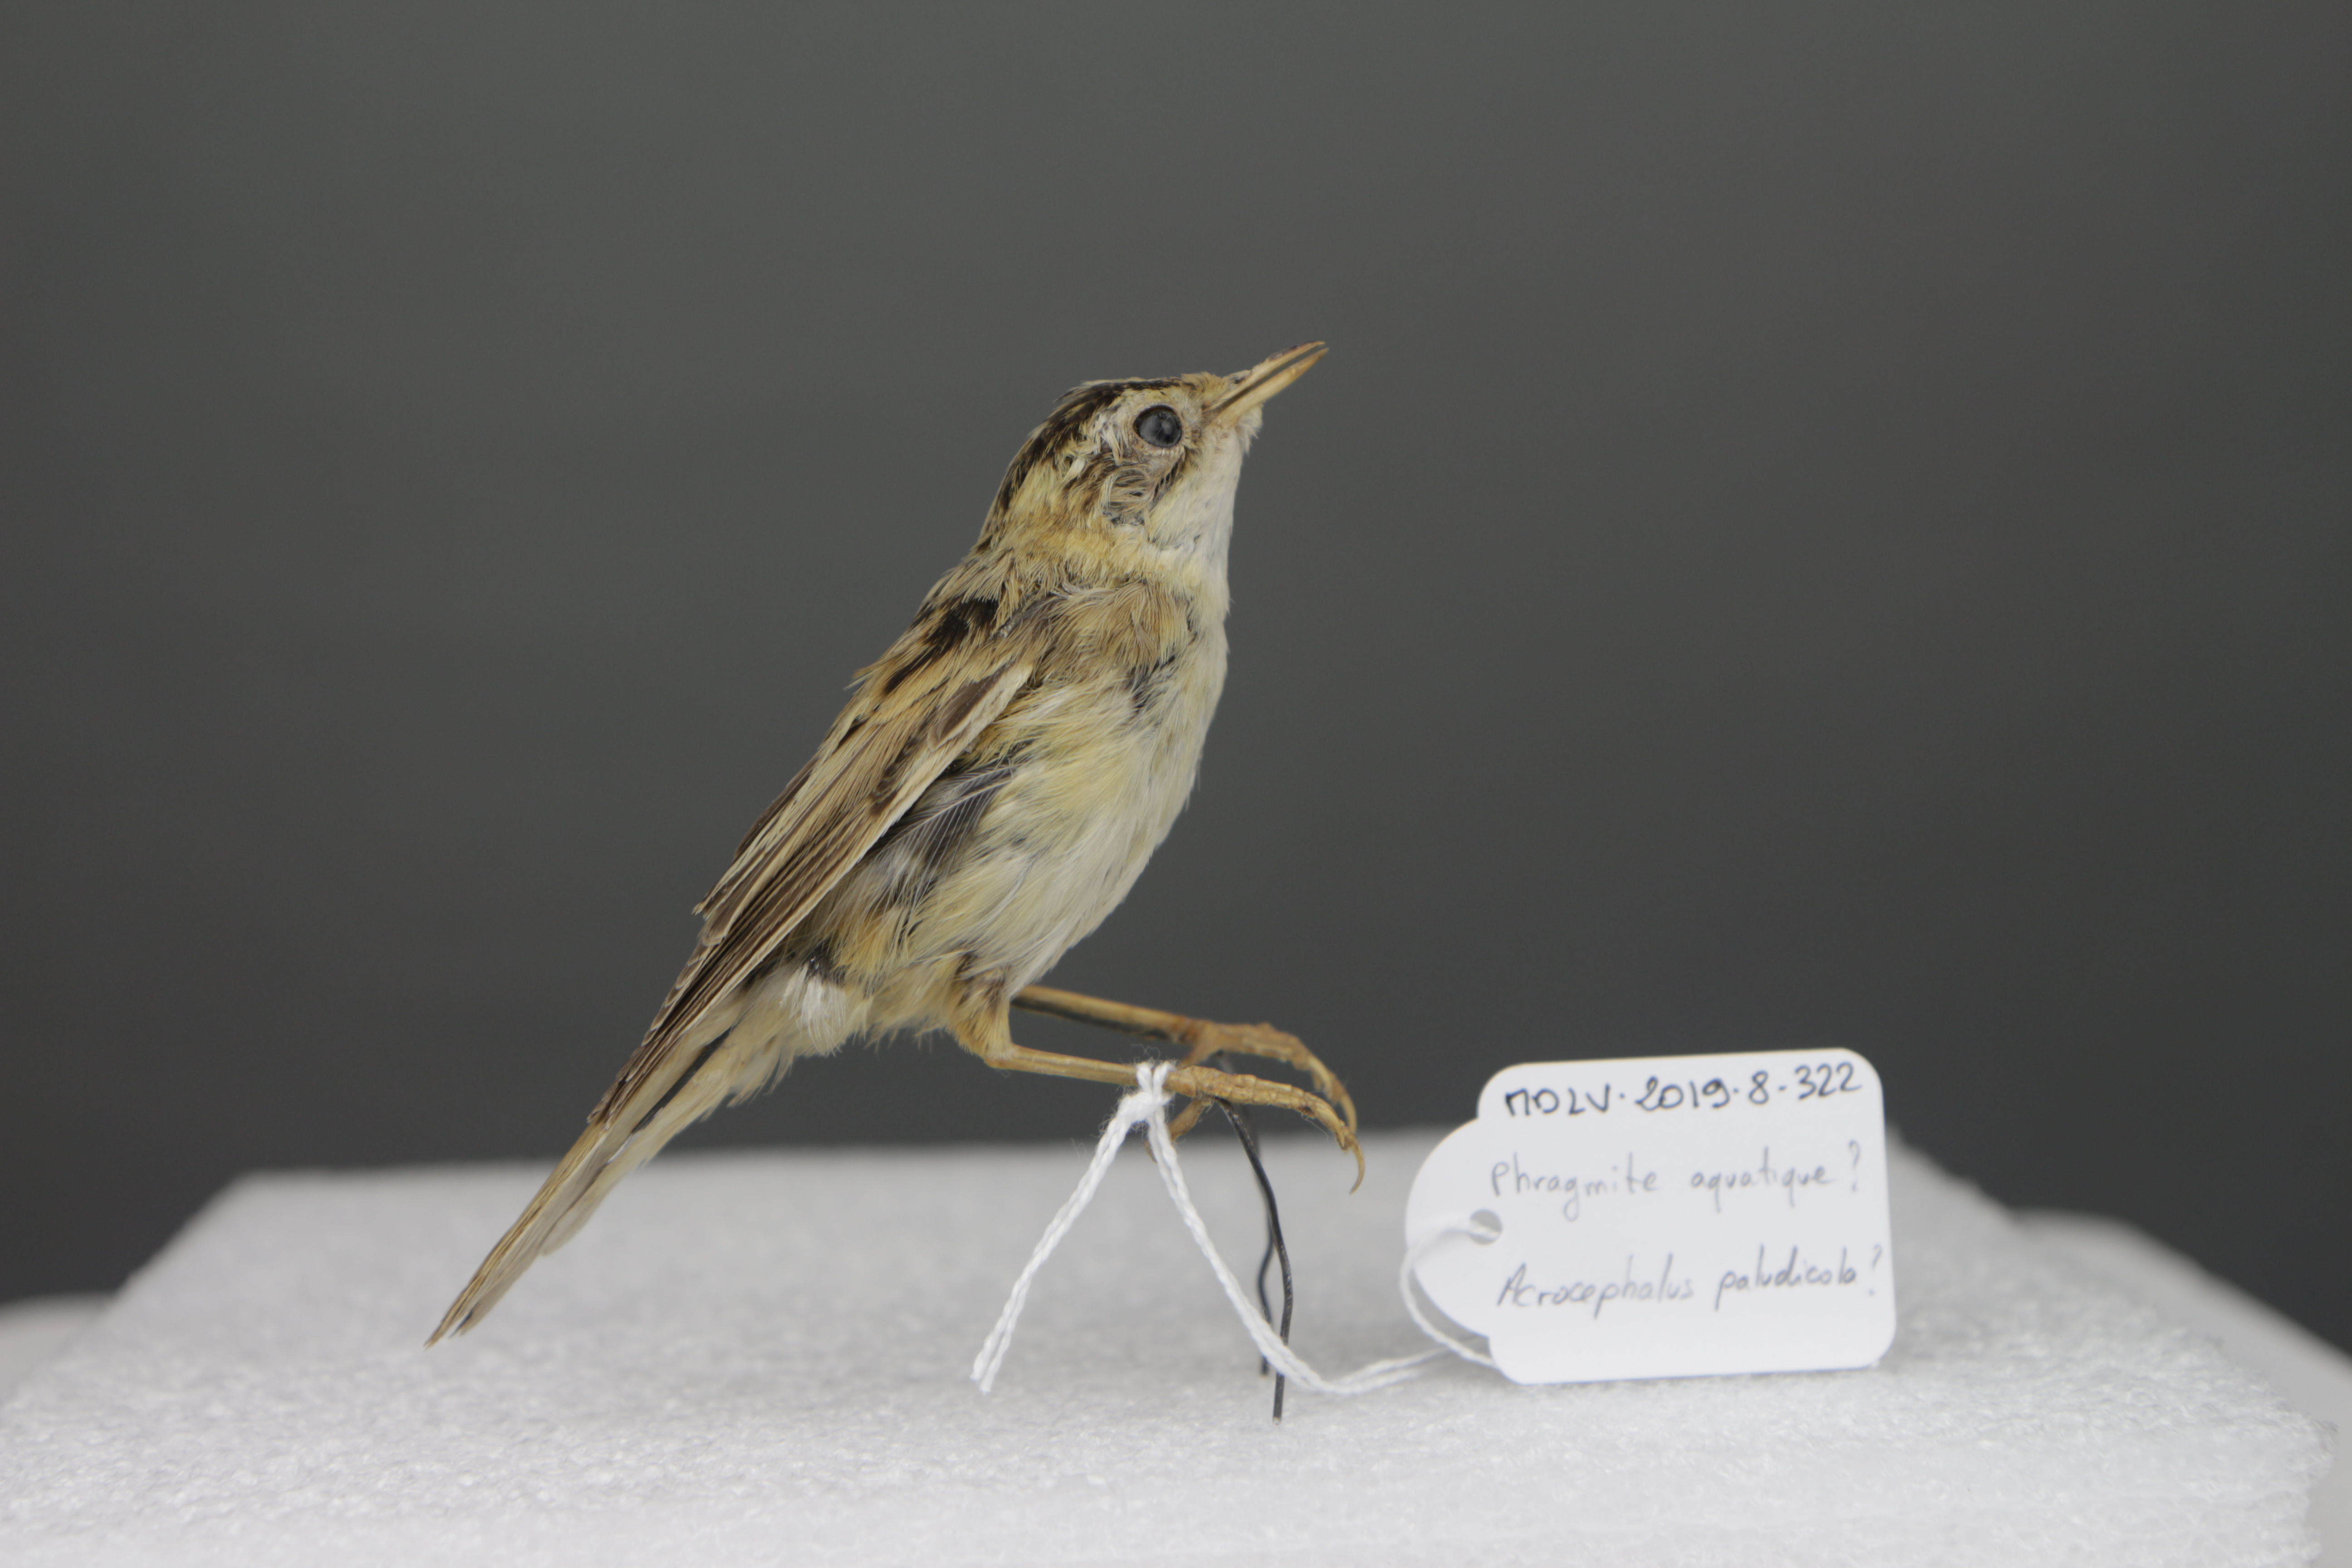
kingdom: Animalia
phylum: Chordata
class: Aves
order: Passeriformes
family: Acrocephalidae
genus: Acrocephalus
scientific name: Acrocephalus paludicola
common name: Aquatic warbler
